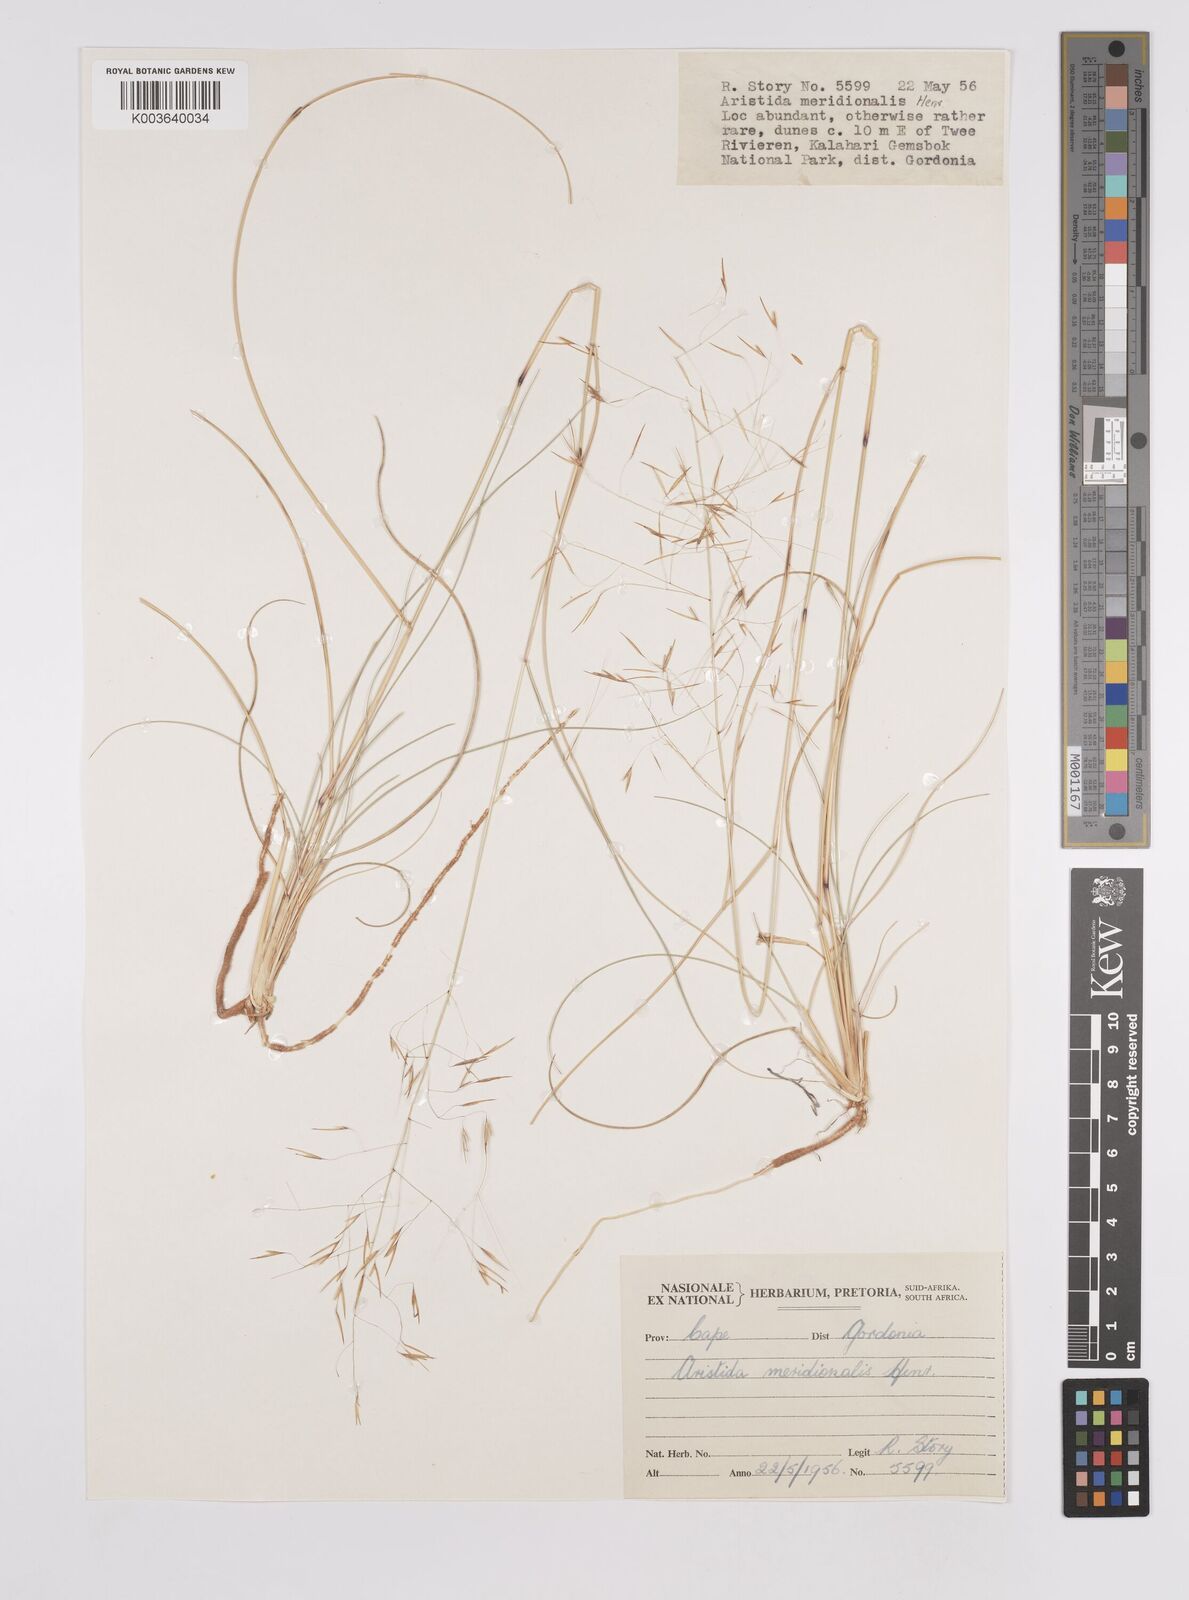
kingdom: Plantae
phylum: Tracheophyta
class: Liliopsida
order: Poales
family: Poaceae
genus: Aristida
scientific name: Aristida meridionalis
